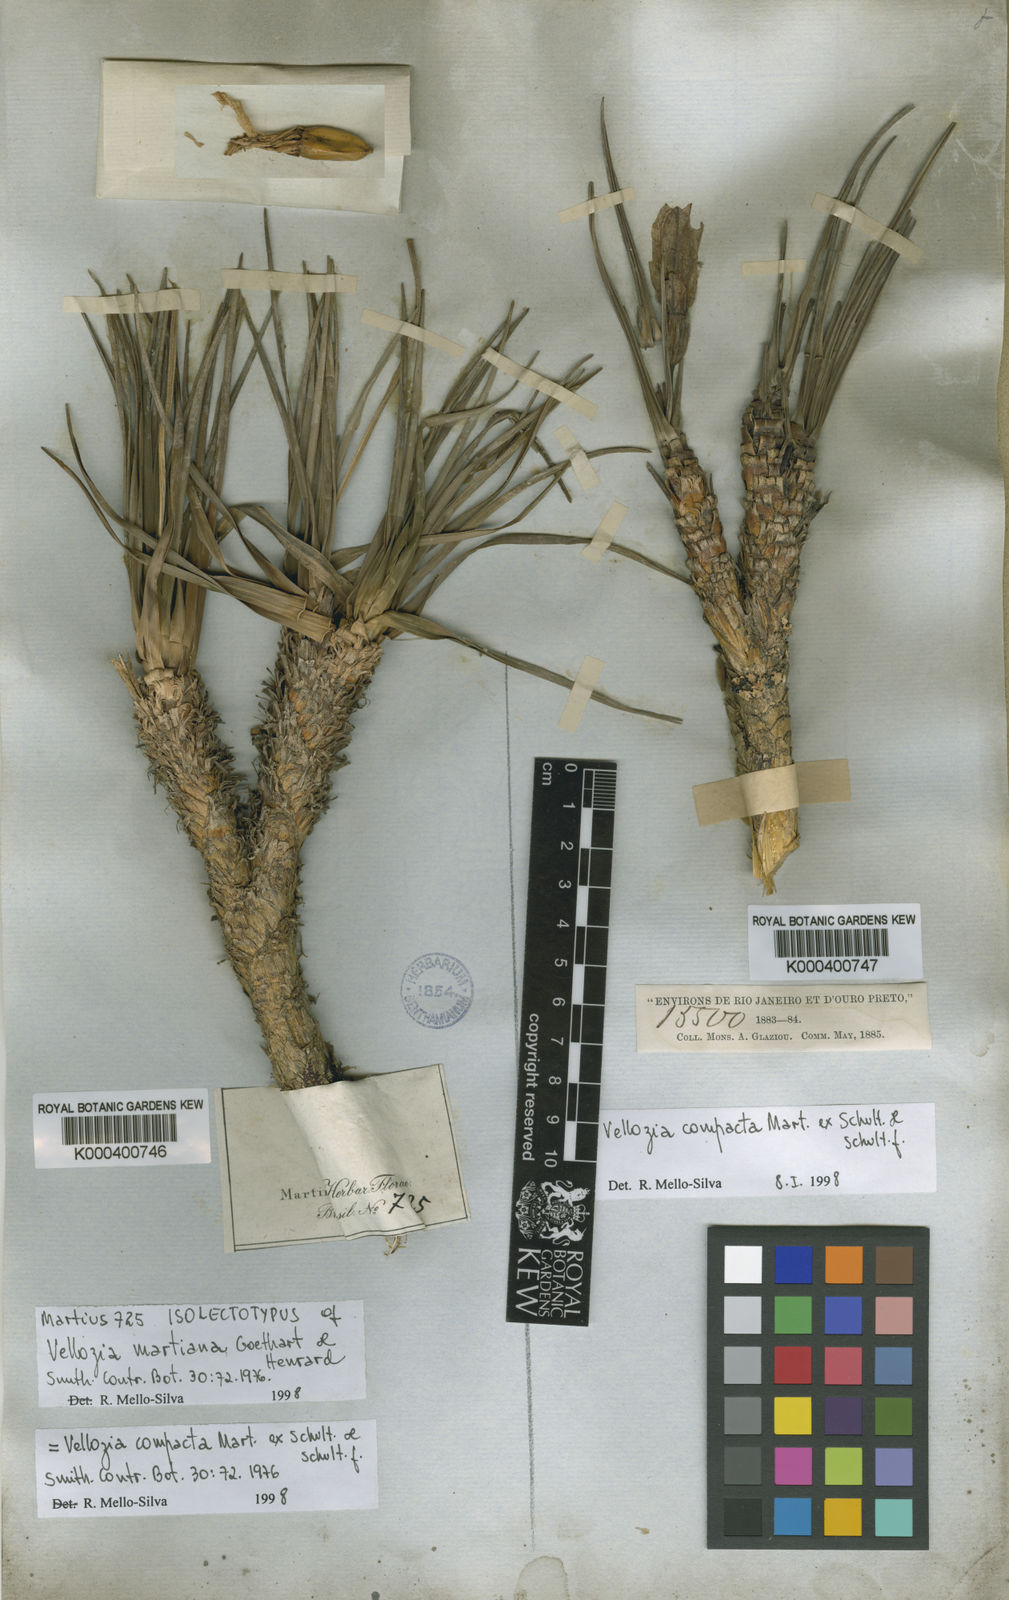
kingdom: Plantae
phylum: Tracheophyta
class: Liliopsida
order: Pandanales
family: Velloziaceae
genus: Vellozia
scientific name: Vellozia compacta
